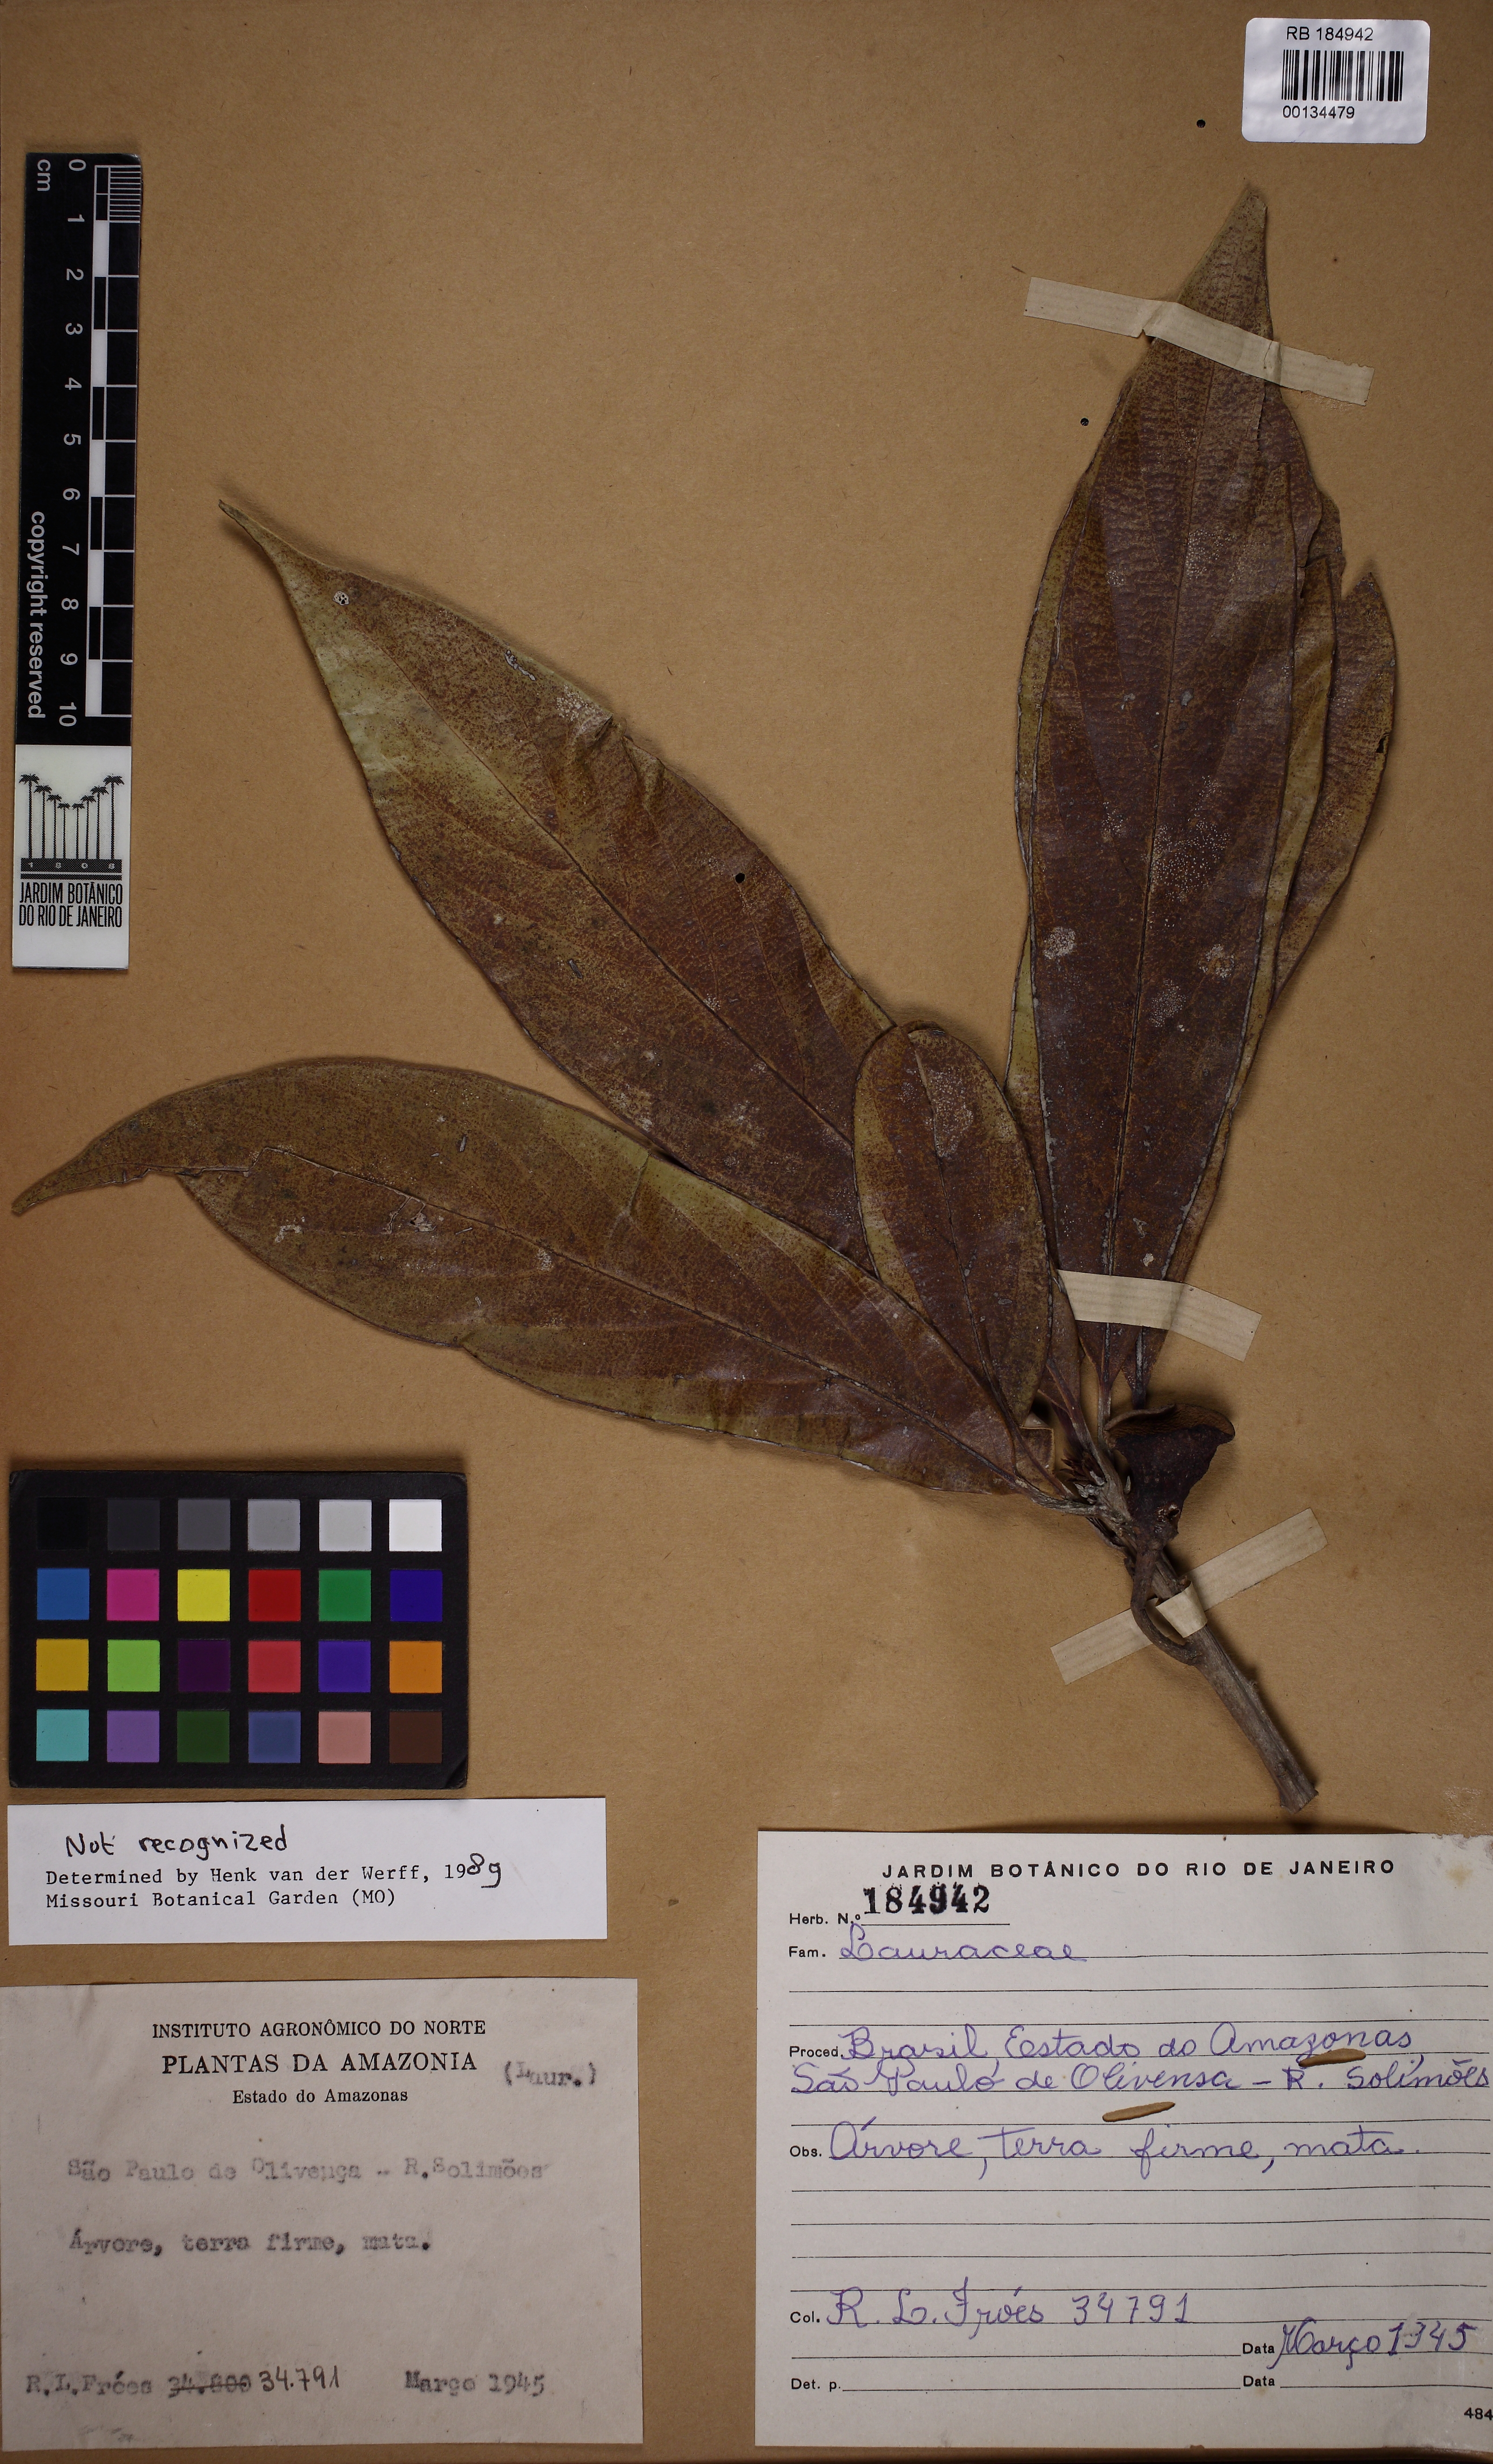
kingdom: Plantae
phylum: Tracheophyta
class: Magnoliopsida
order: Laurales
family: Lauraceae
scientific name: Lauraceae
